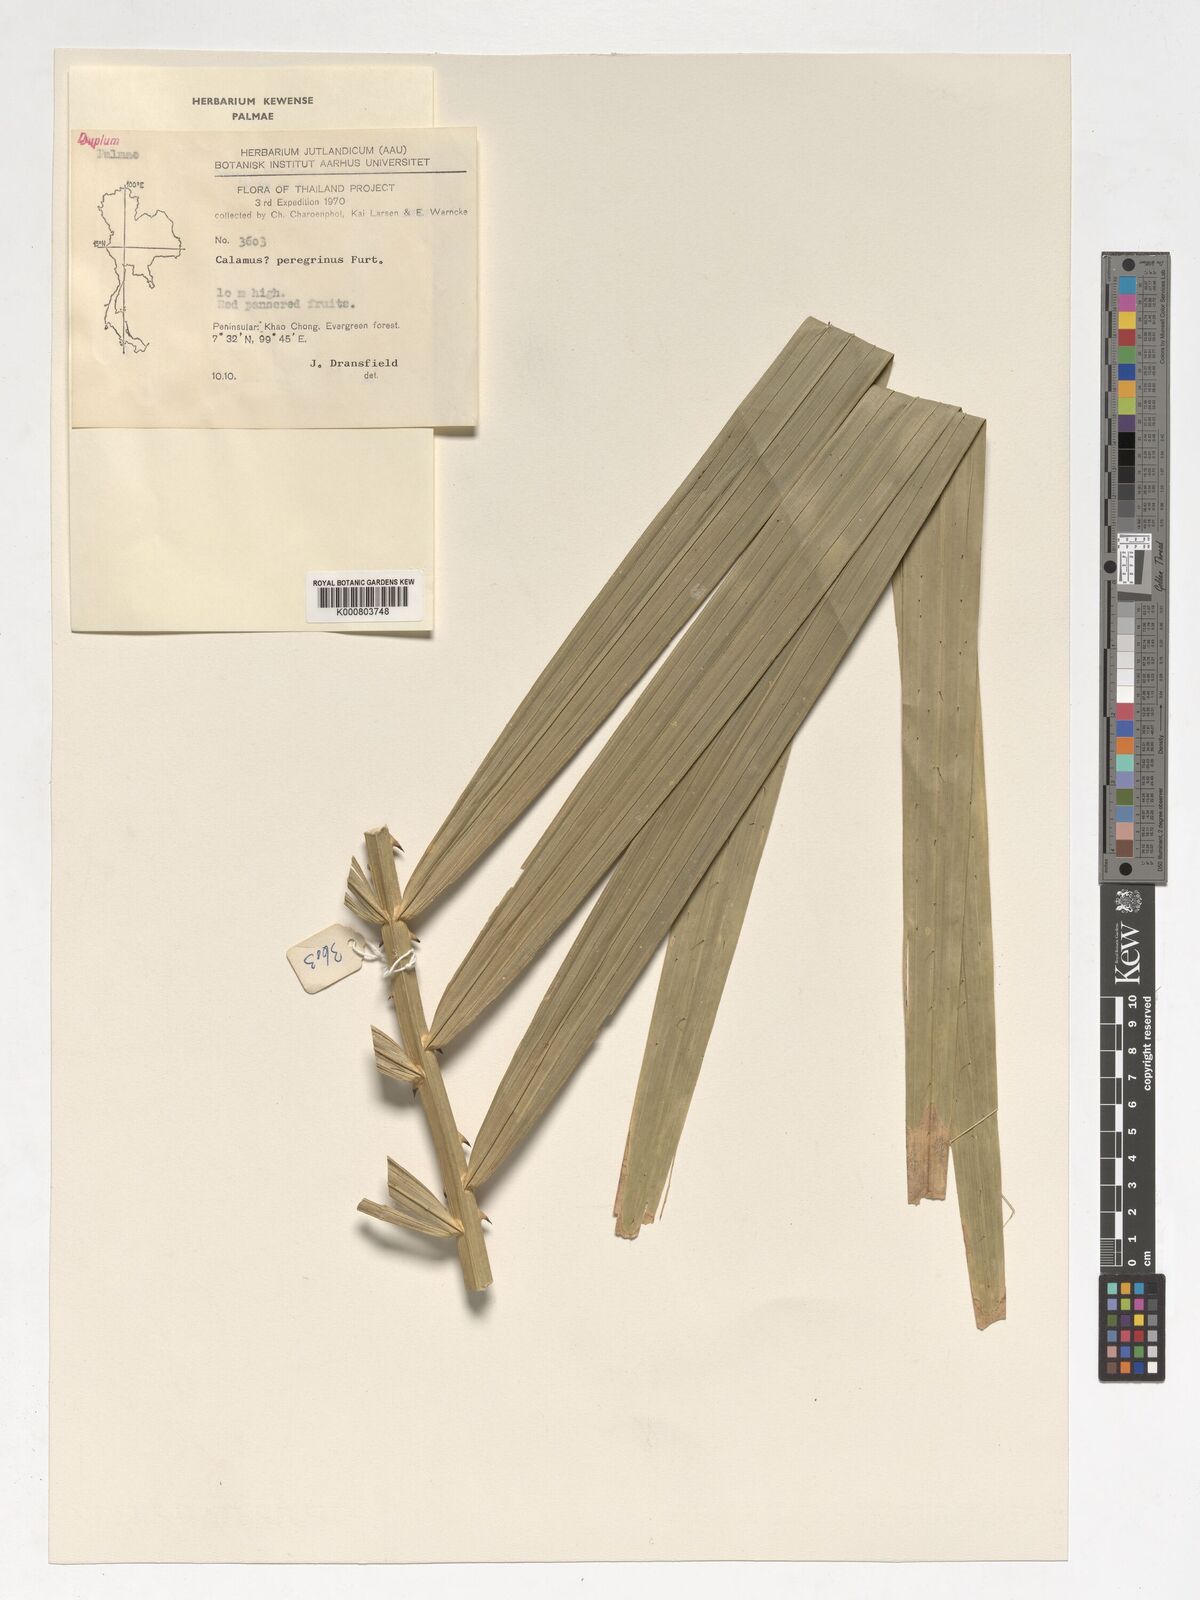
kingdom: Plantae
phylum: Tracheophyta
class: Liliopsida
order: Arecales
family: Arecaceae
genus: Calamus
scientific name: Calamus peregrinus
